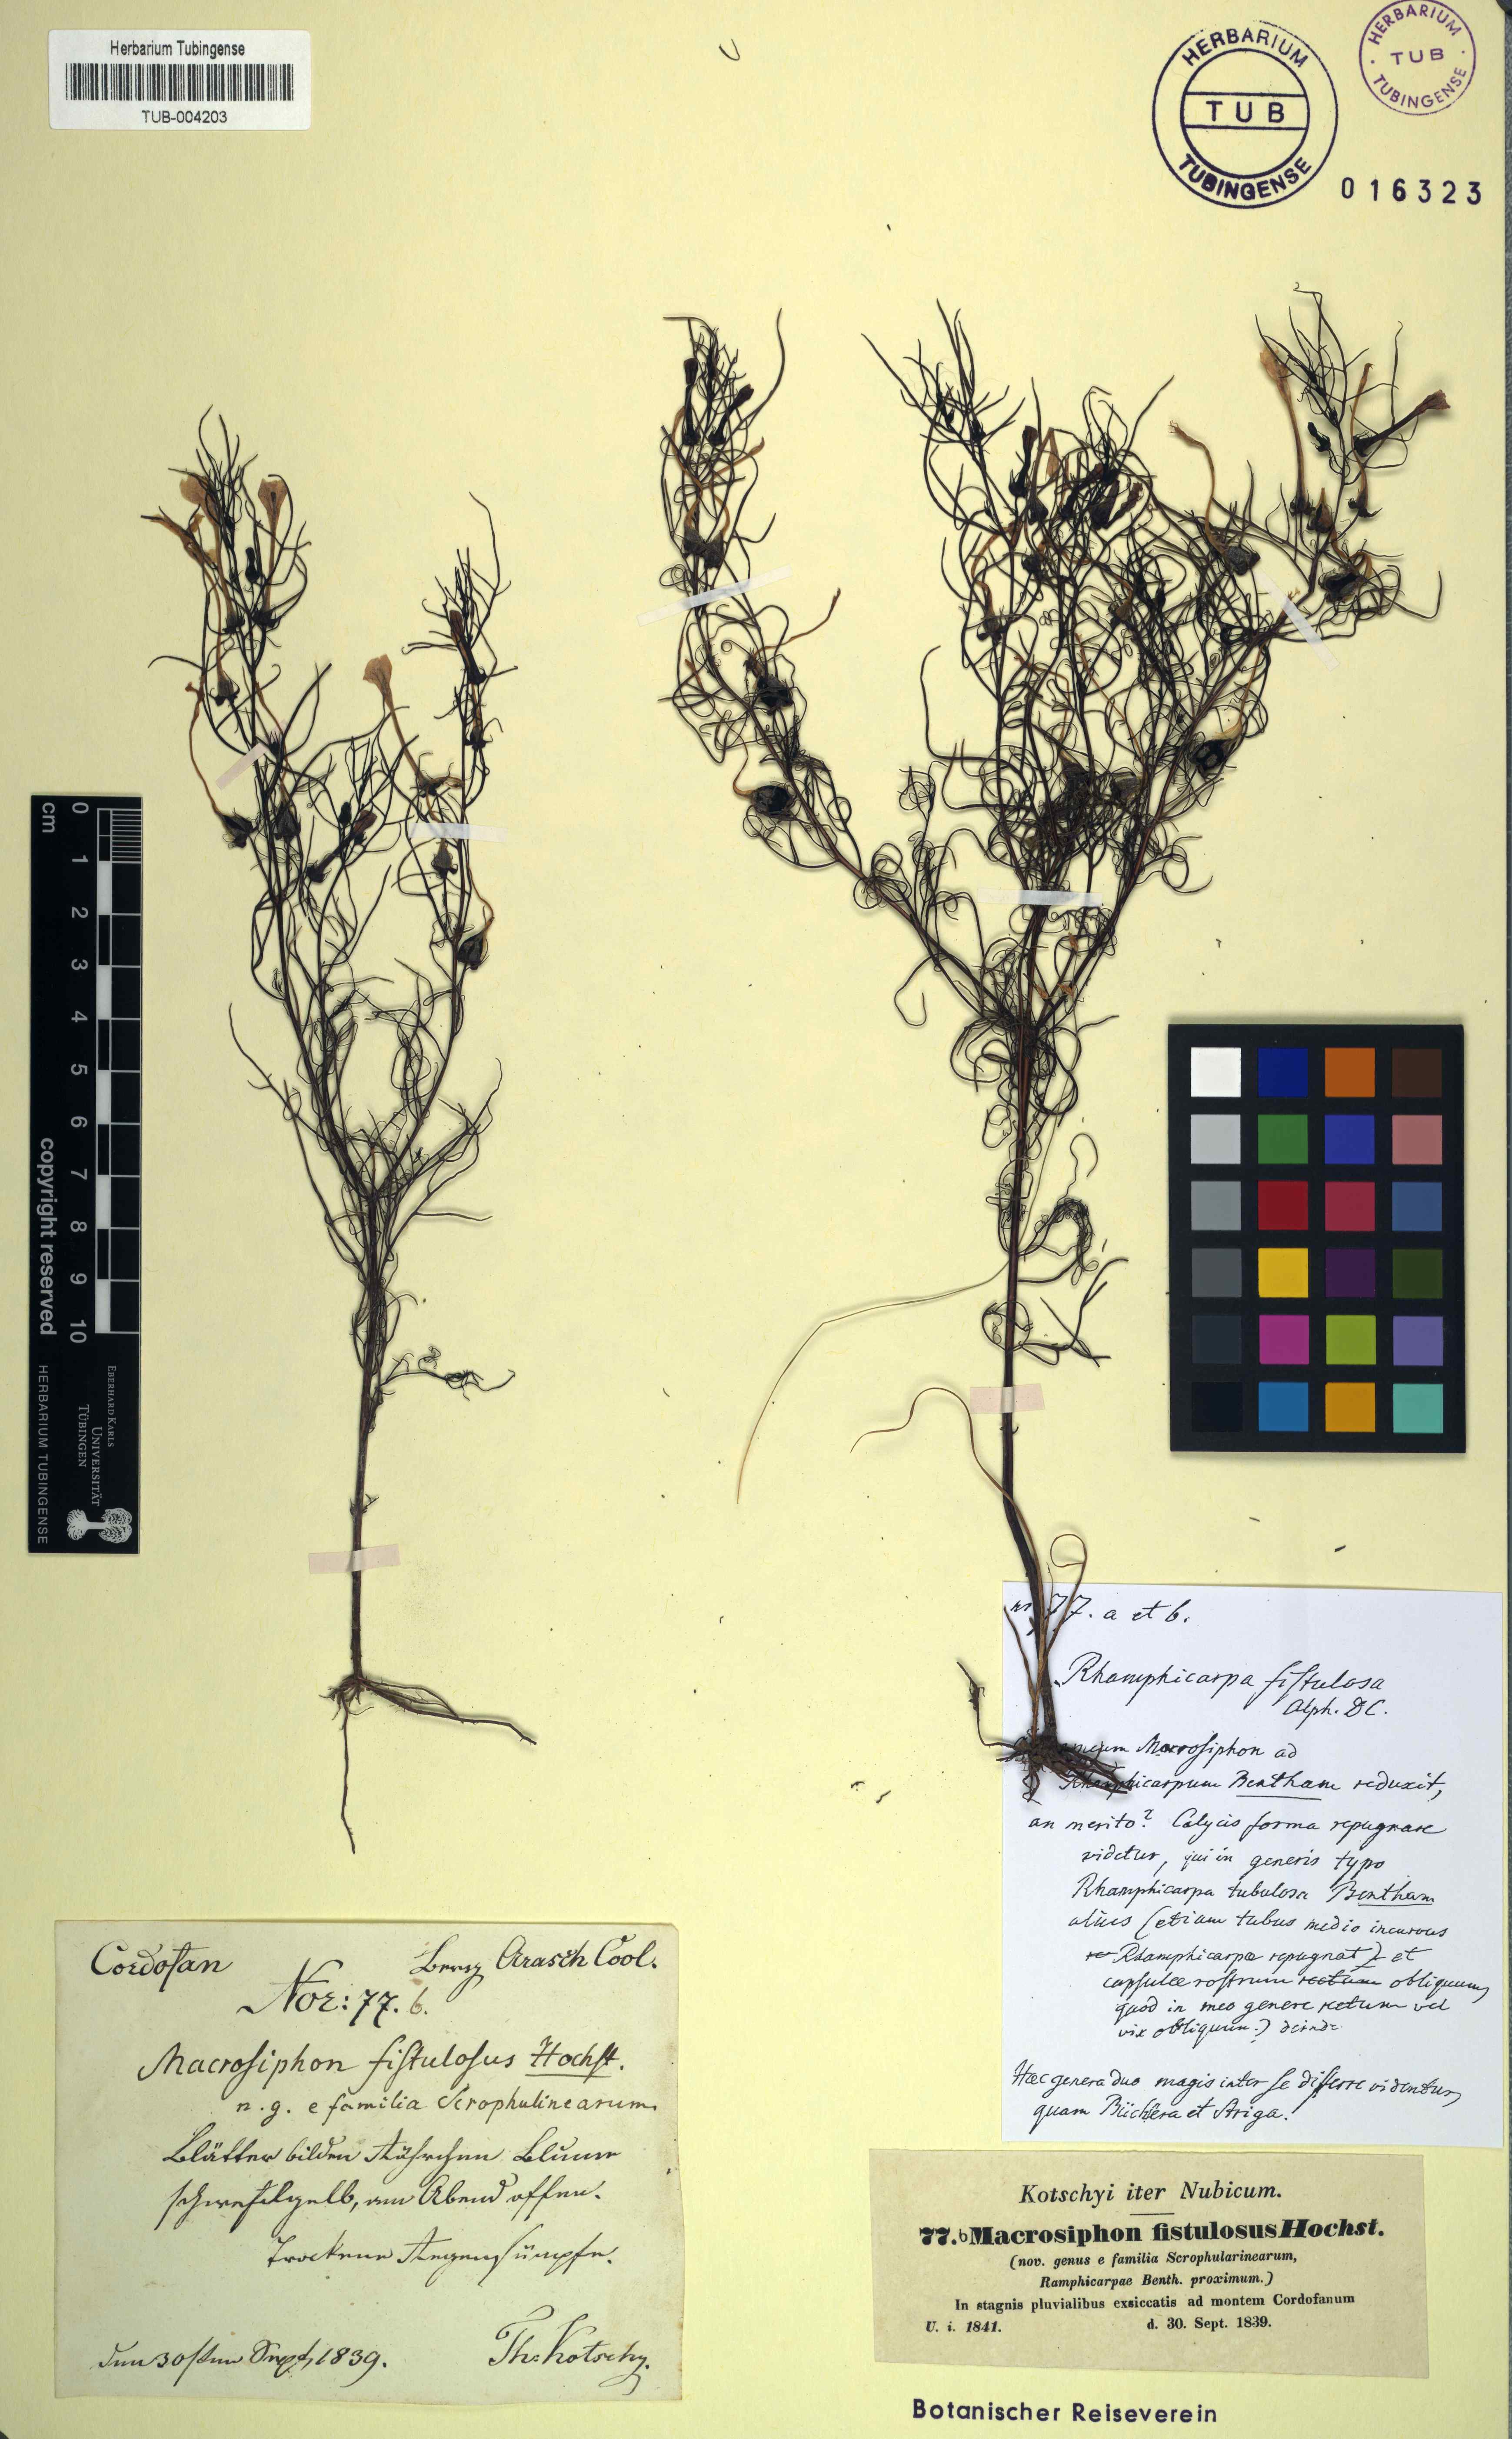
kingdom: Plantae
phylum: Tracheophyta
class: Magnoliopsida
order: Lamiales
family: Orobanchaceae
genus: Rhamphicarpa
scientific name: Rhamphicarpa elongata
